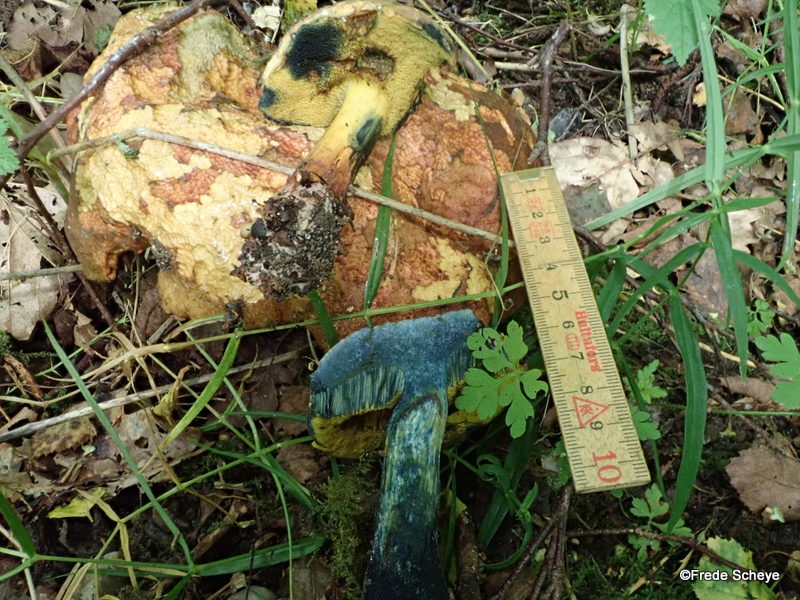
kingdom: Fungi
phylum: Basidiomycota
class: Agaricomycetes
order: Boletales
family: Boletaceae
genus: Cyanoboletus
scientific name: Cyanoboletus pulverulentus
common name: sortblånende rørhat
